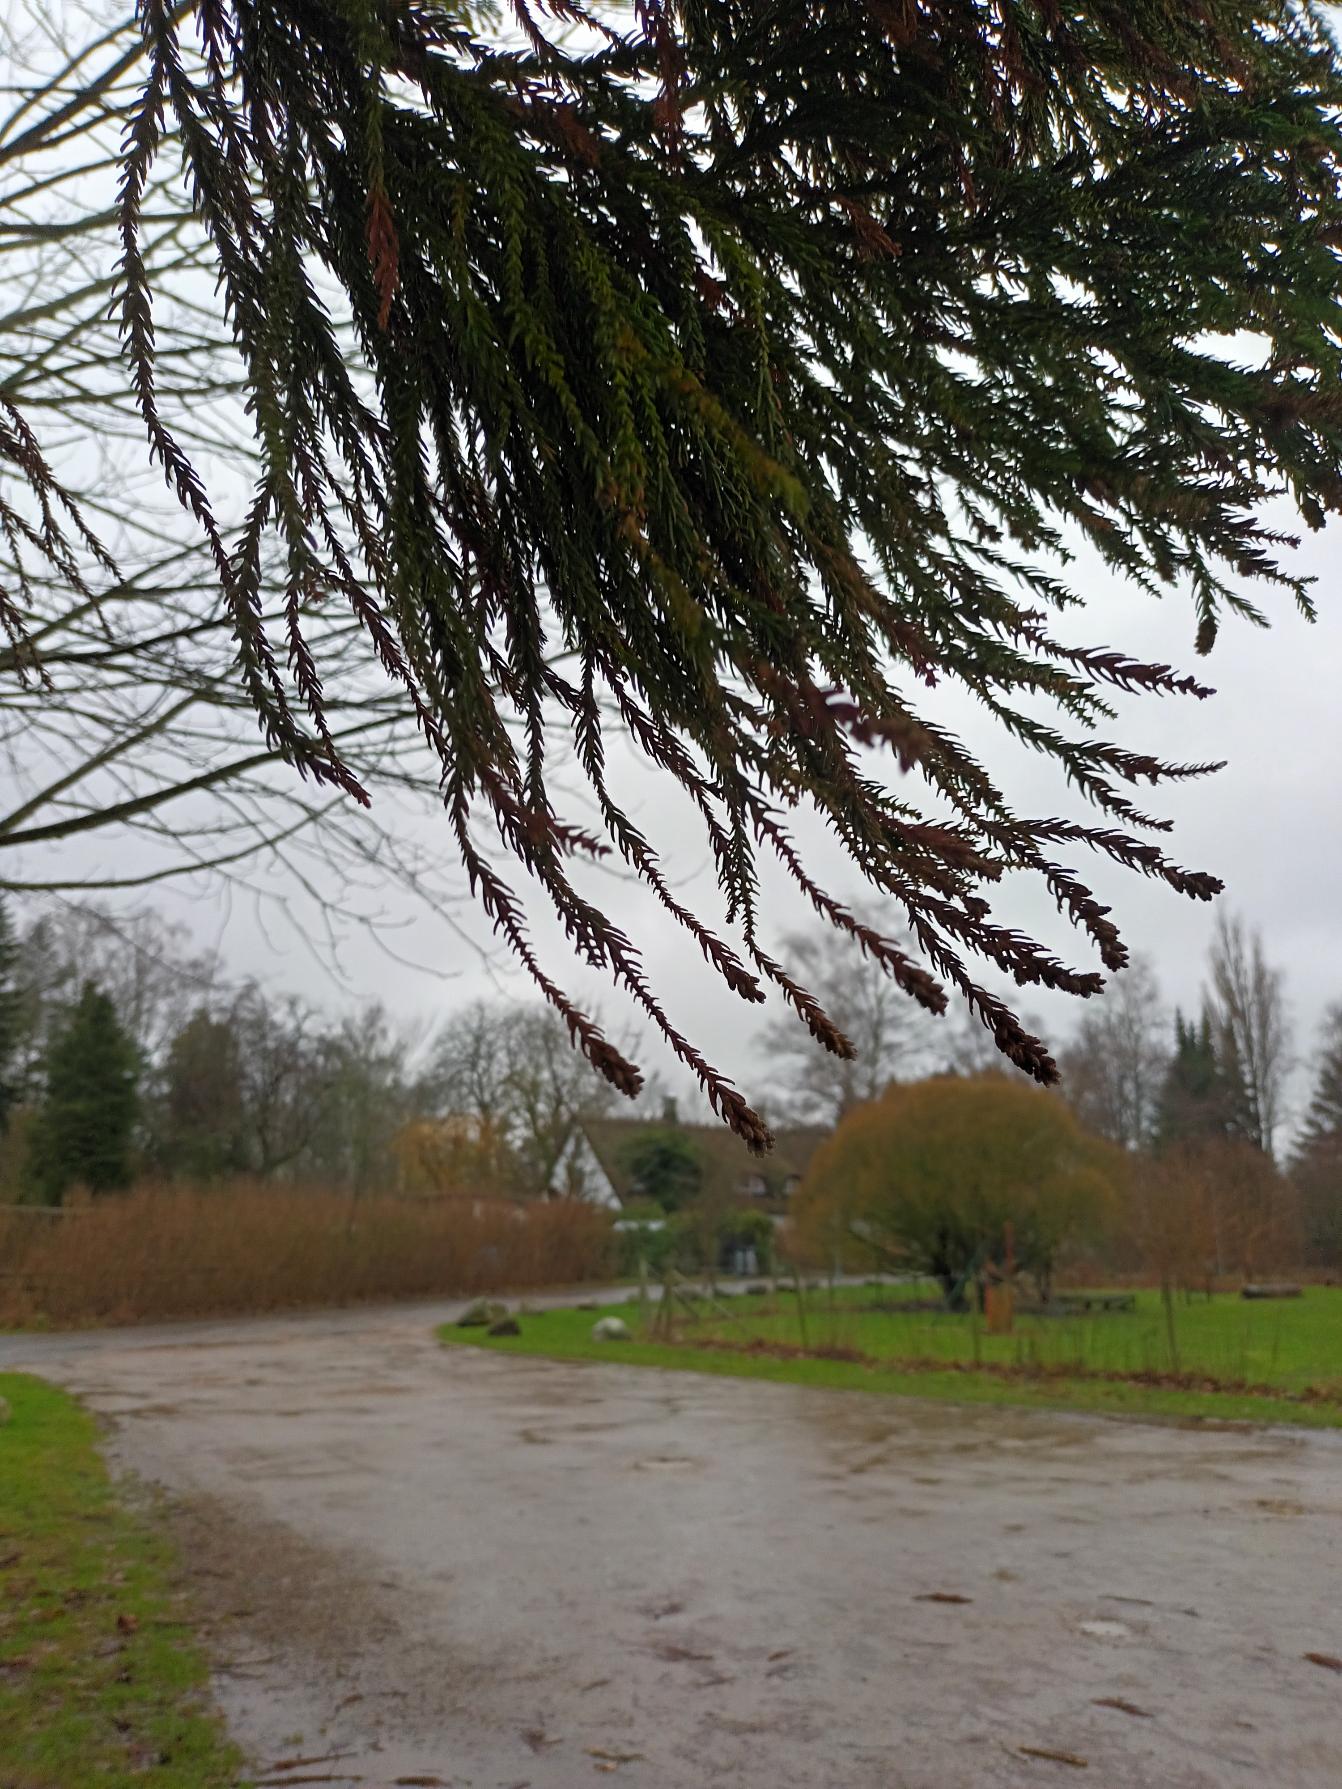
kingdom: Plantae
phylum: Tracheophyta
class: Pinopsida
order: Pinales
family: Cupressaceae
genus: Cryptomeria
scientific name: Cryptomeria japonica
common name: Kryptomeria
